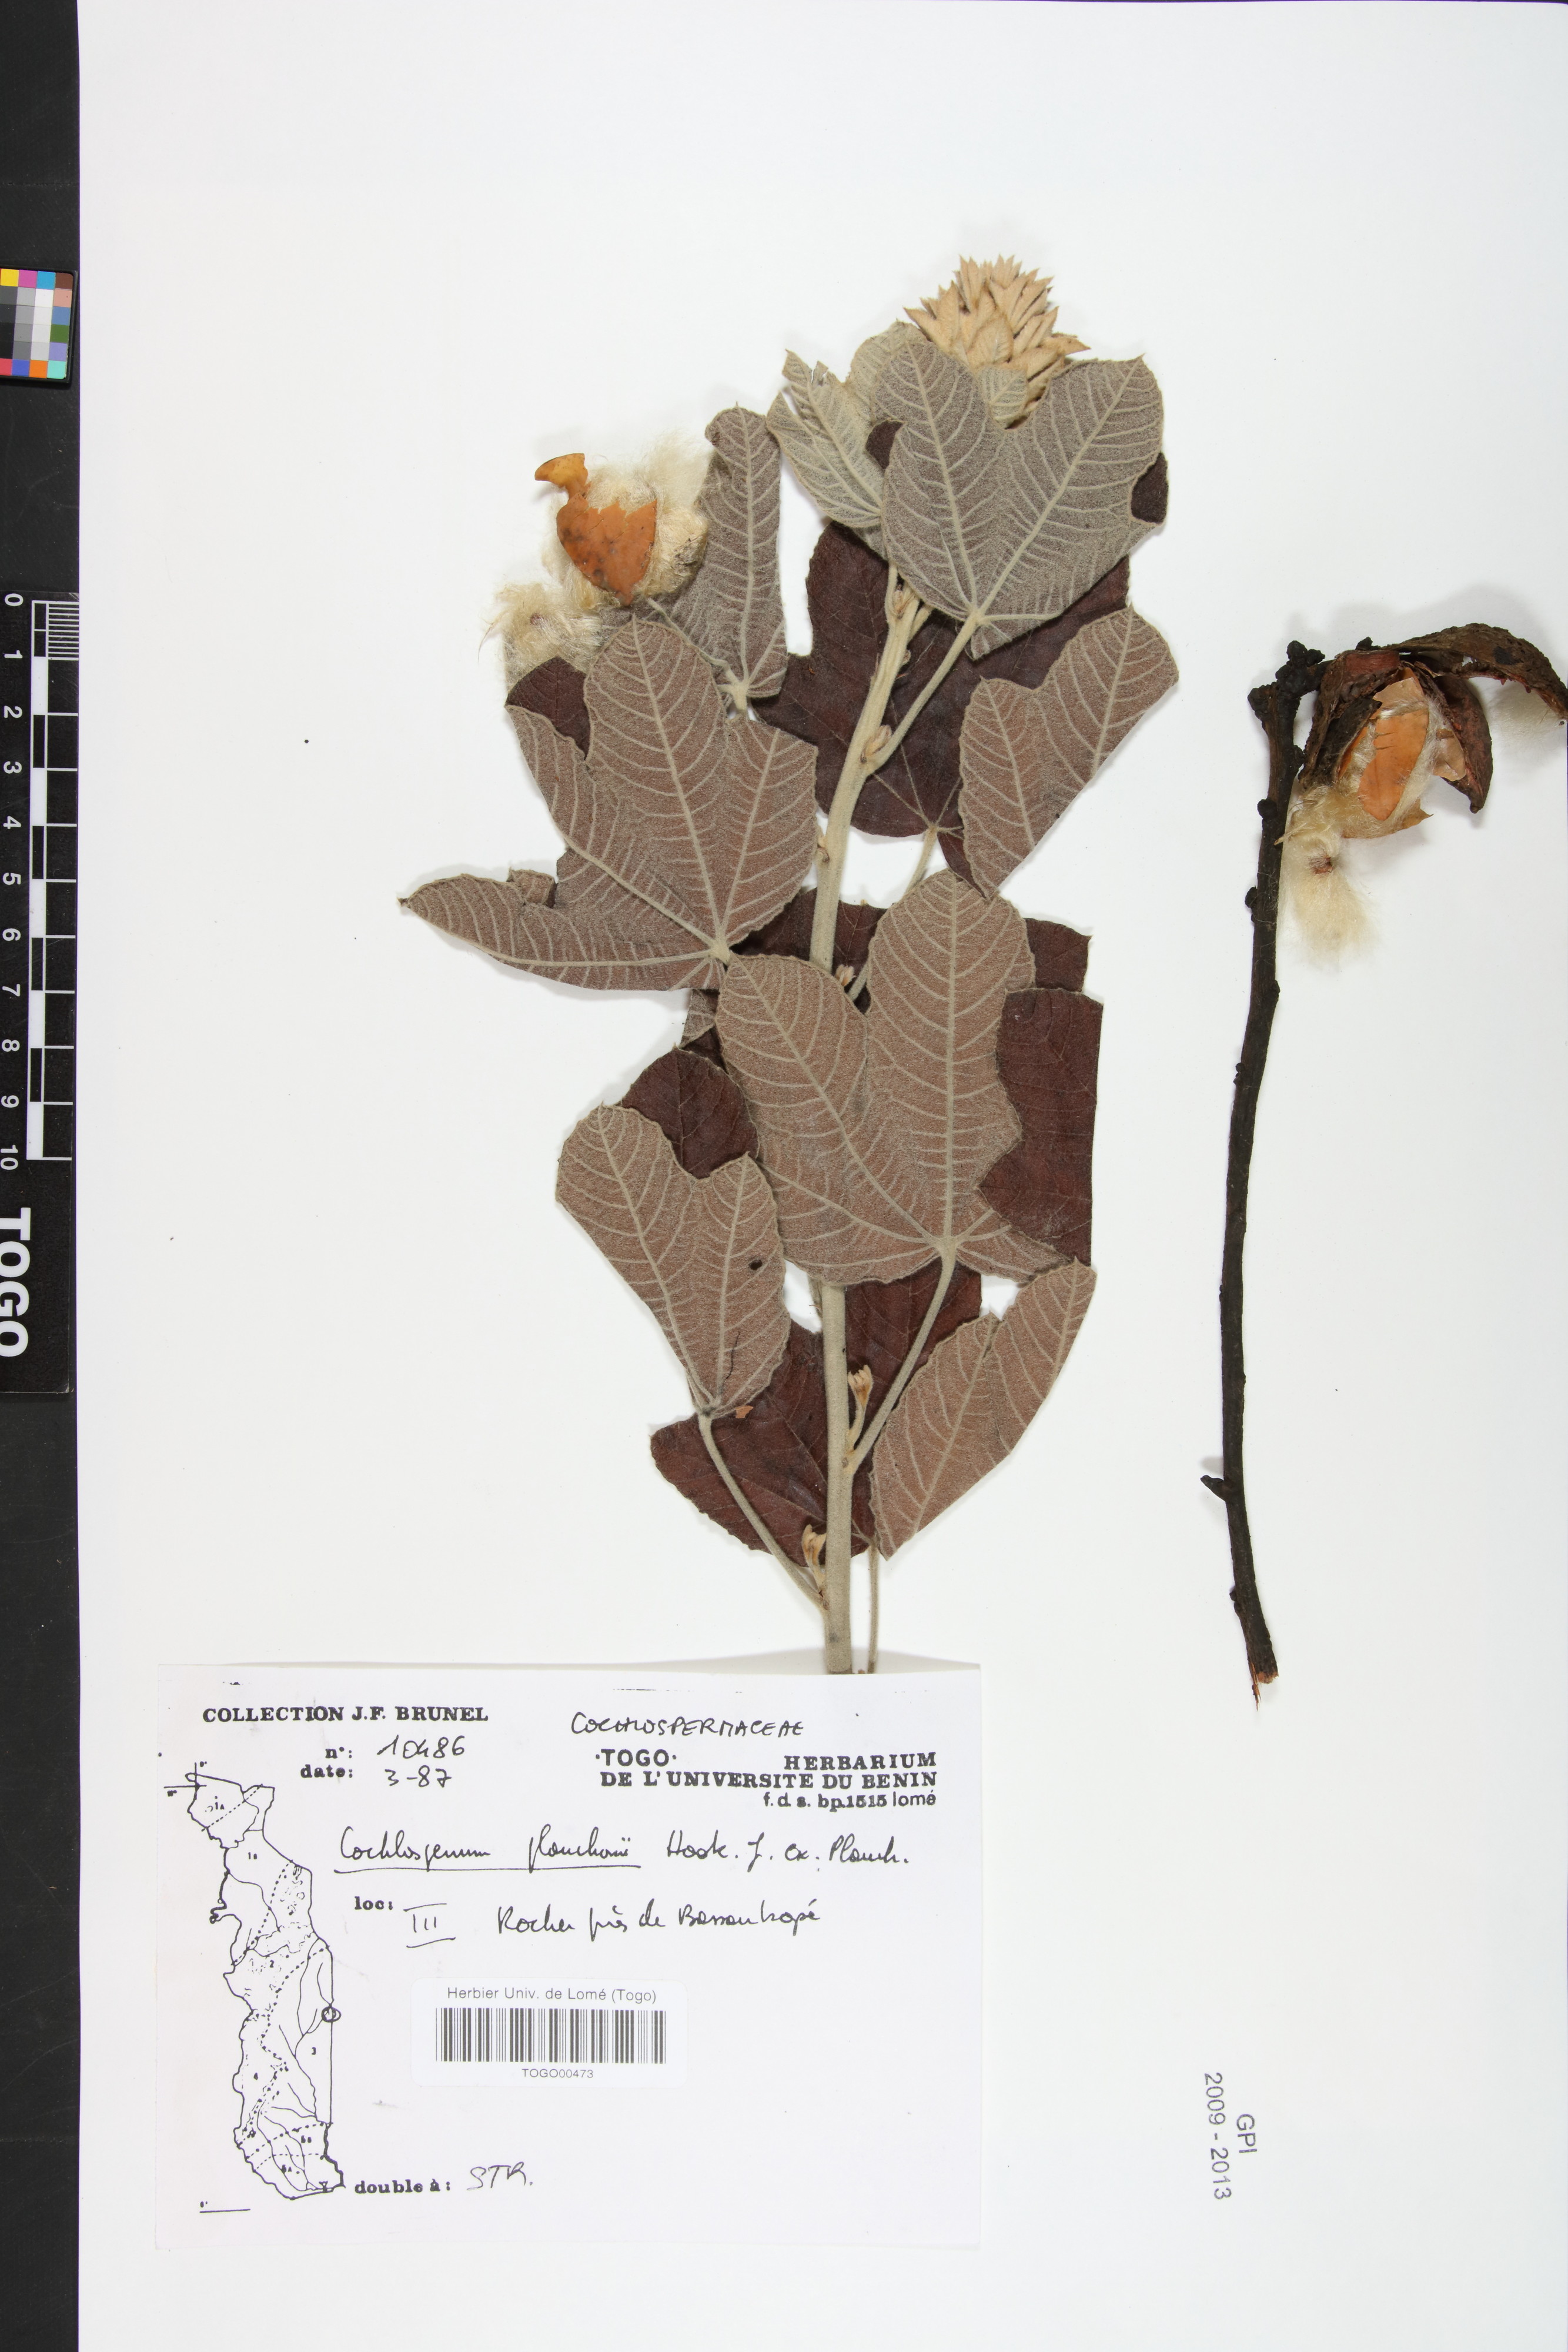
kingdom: Plantae
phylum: Tracheophyta
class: Magnoliopsida
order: Malvales
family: Cochlospermaceae
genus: Cochlospermum
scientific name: Cochlospermum planchonii
